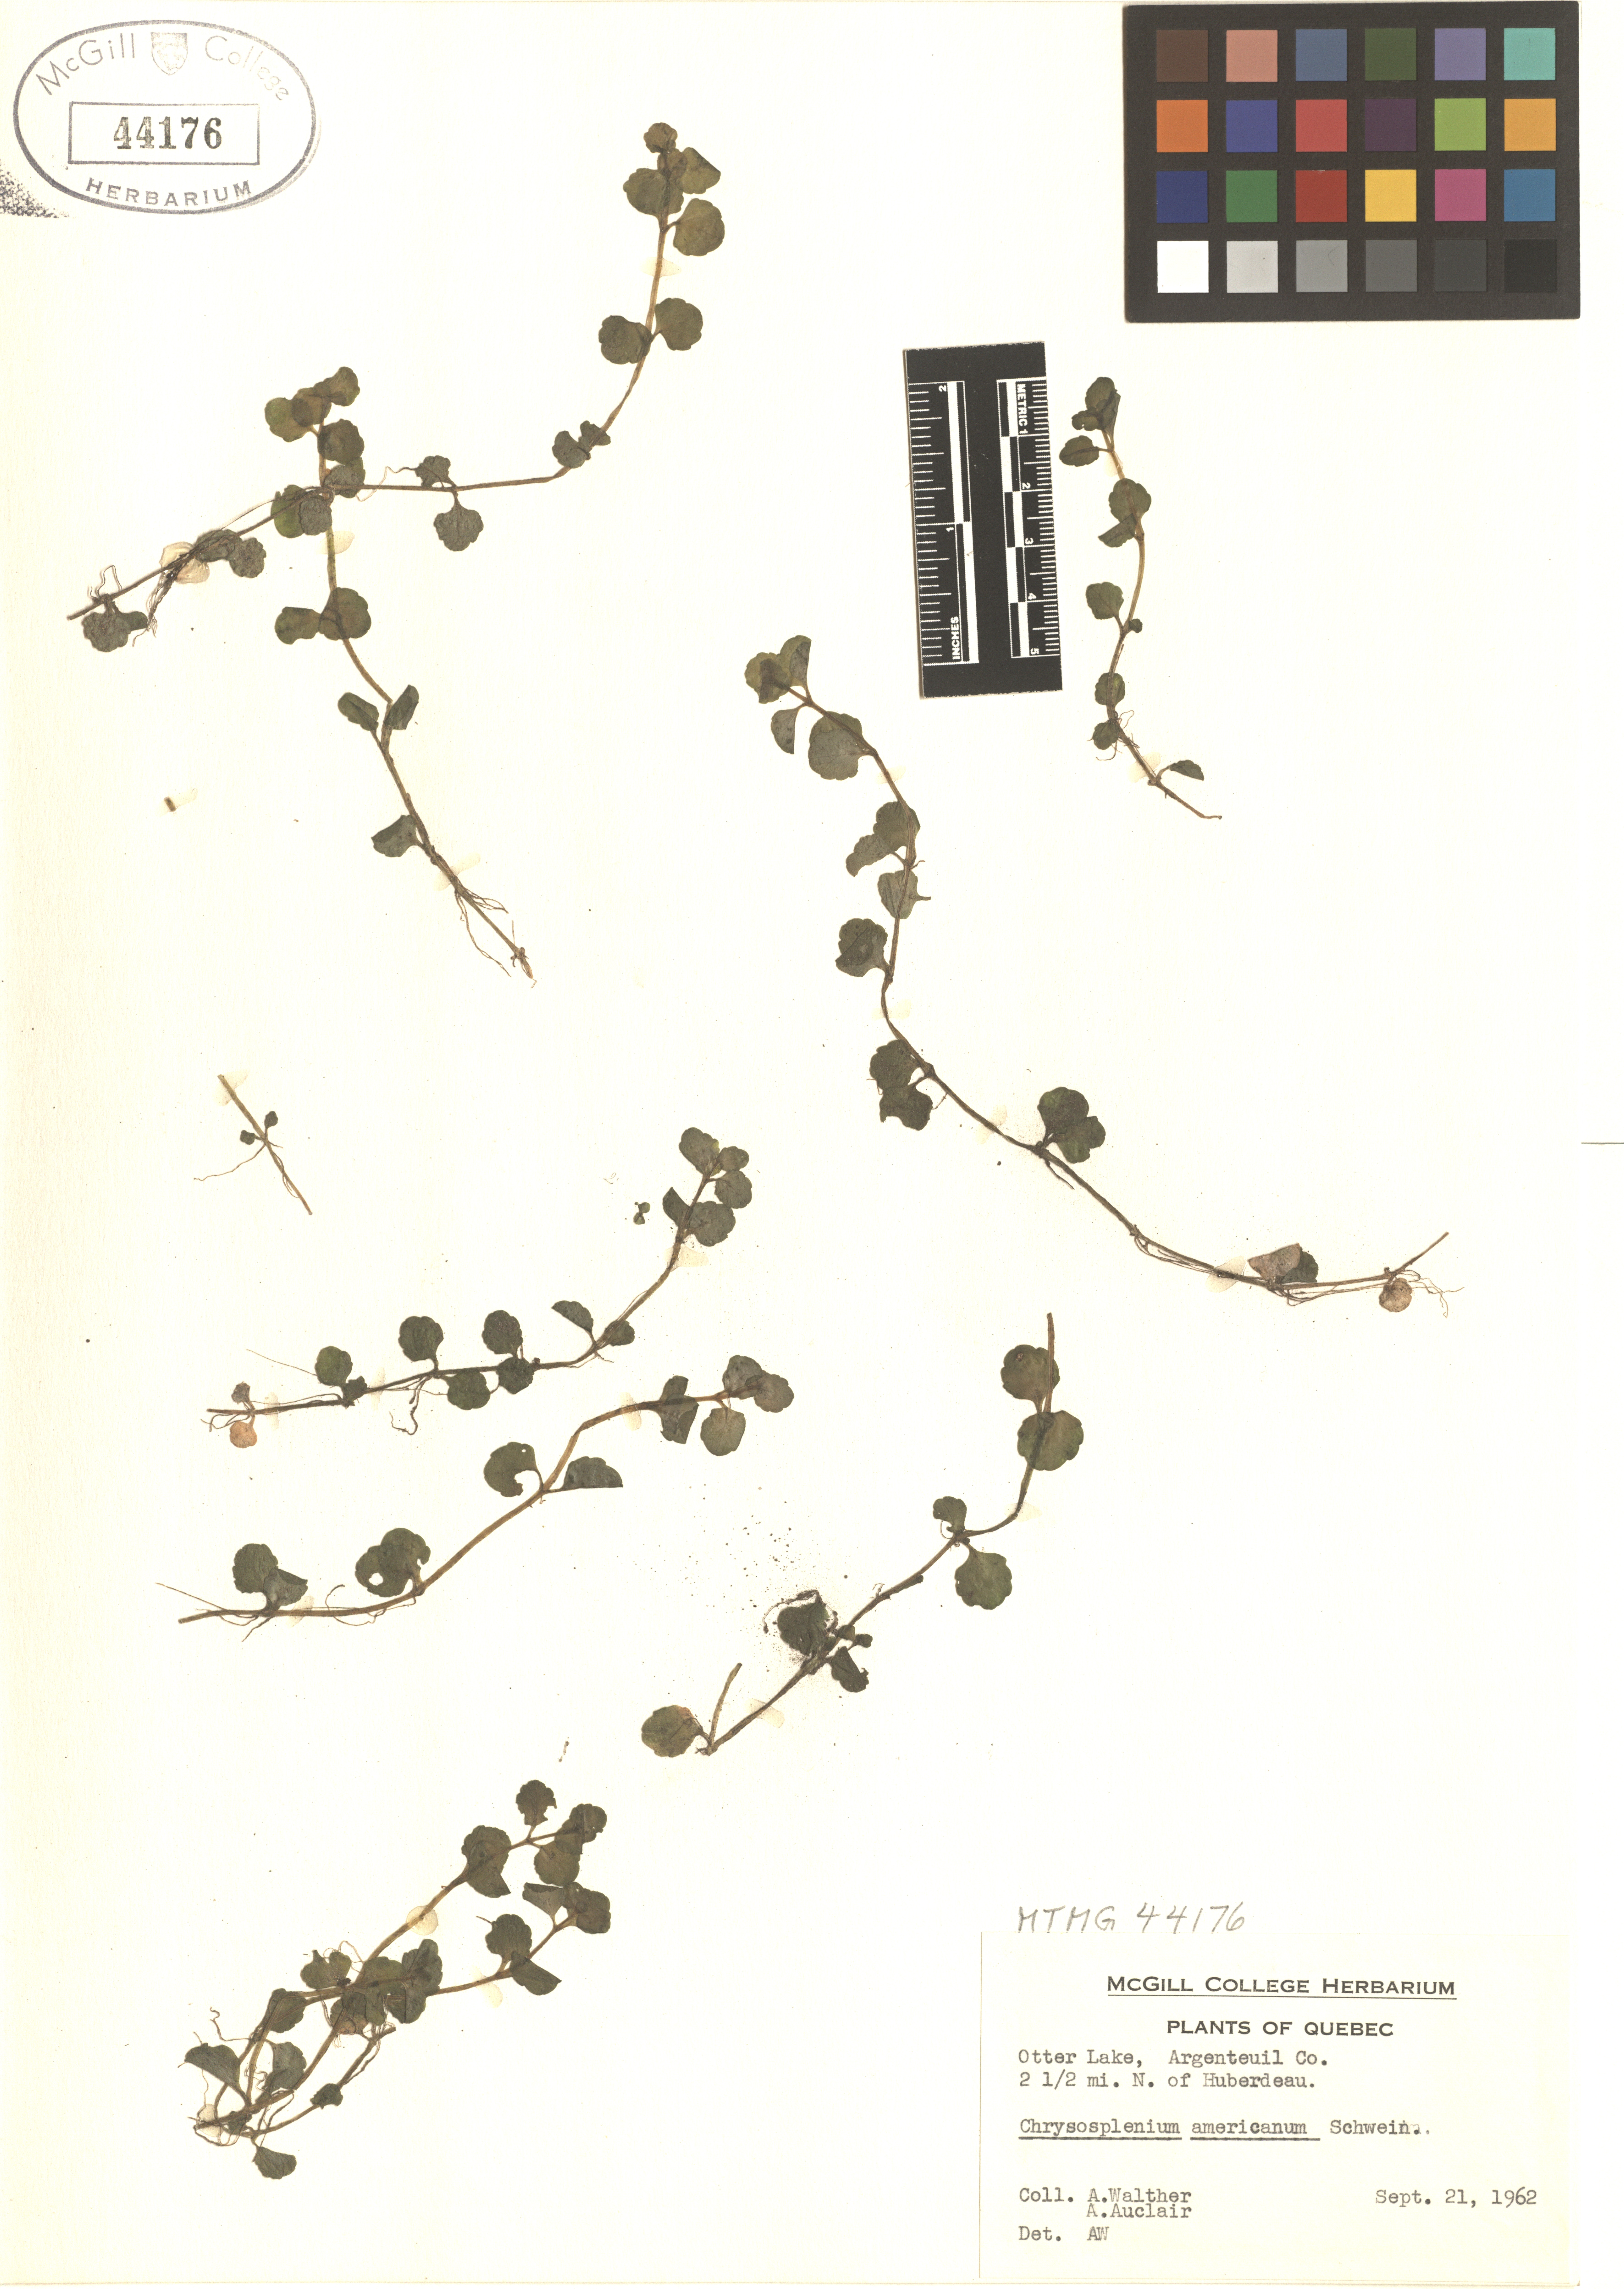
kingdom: Plantae
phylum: Tracheophyta
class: Magnoliopsida
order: Saxifragales
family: Saxifragaceae
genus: Chrysosplenium
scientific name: Chrysosplenium americanum
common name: American golden-saxifrage
